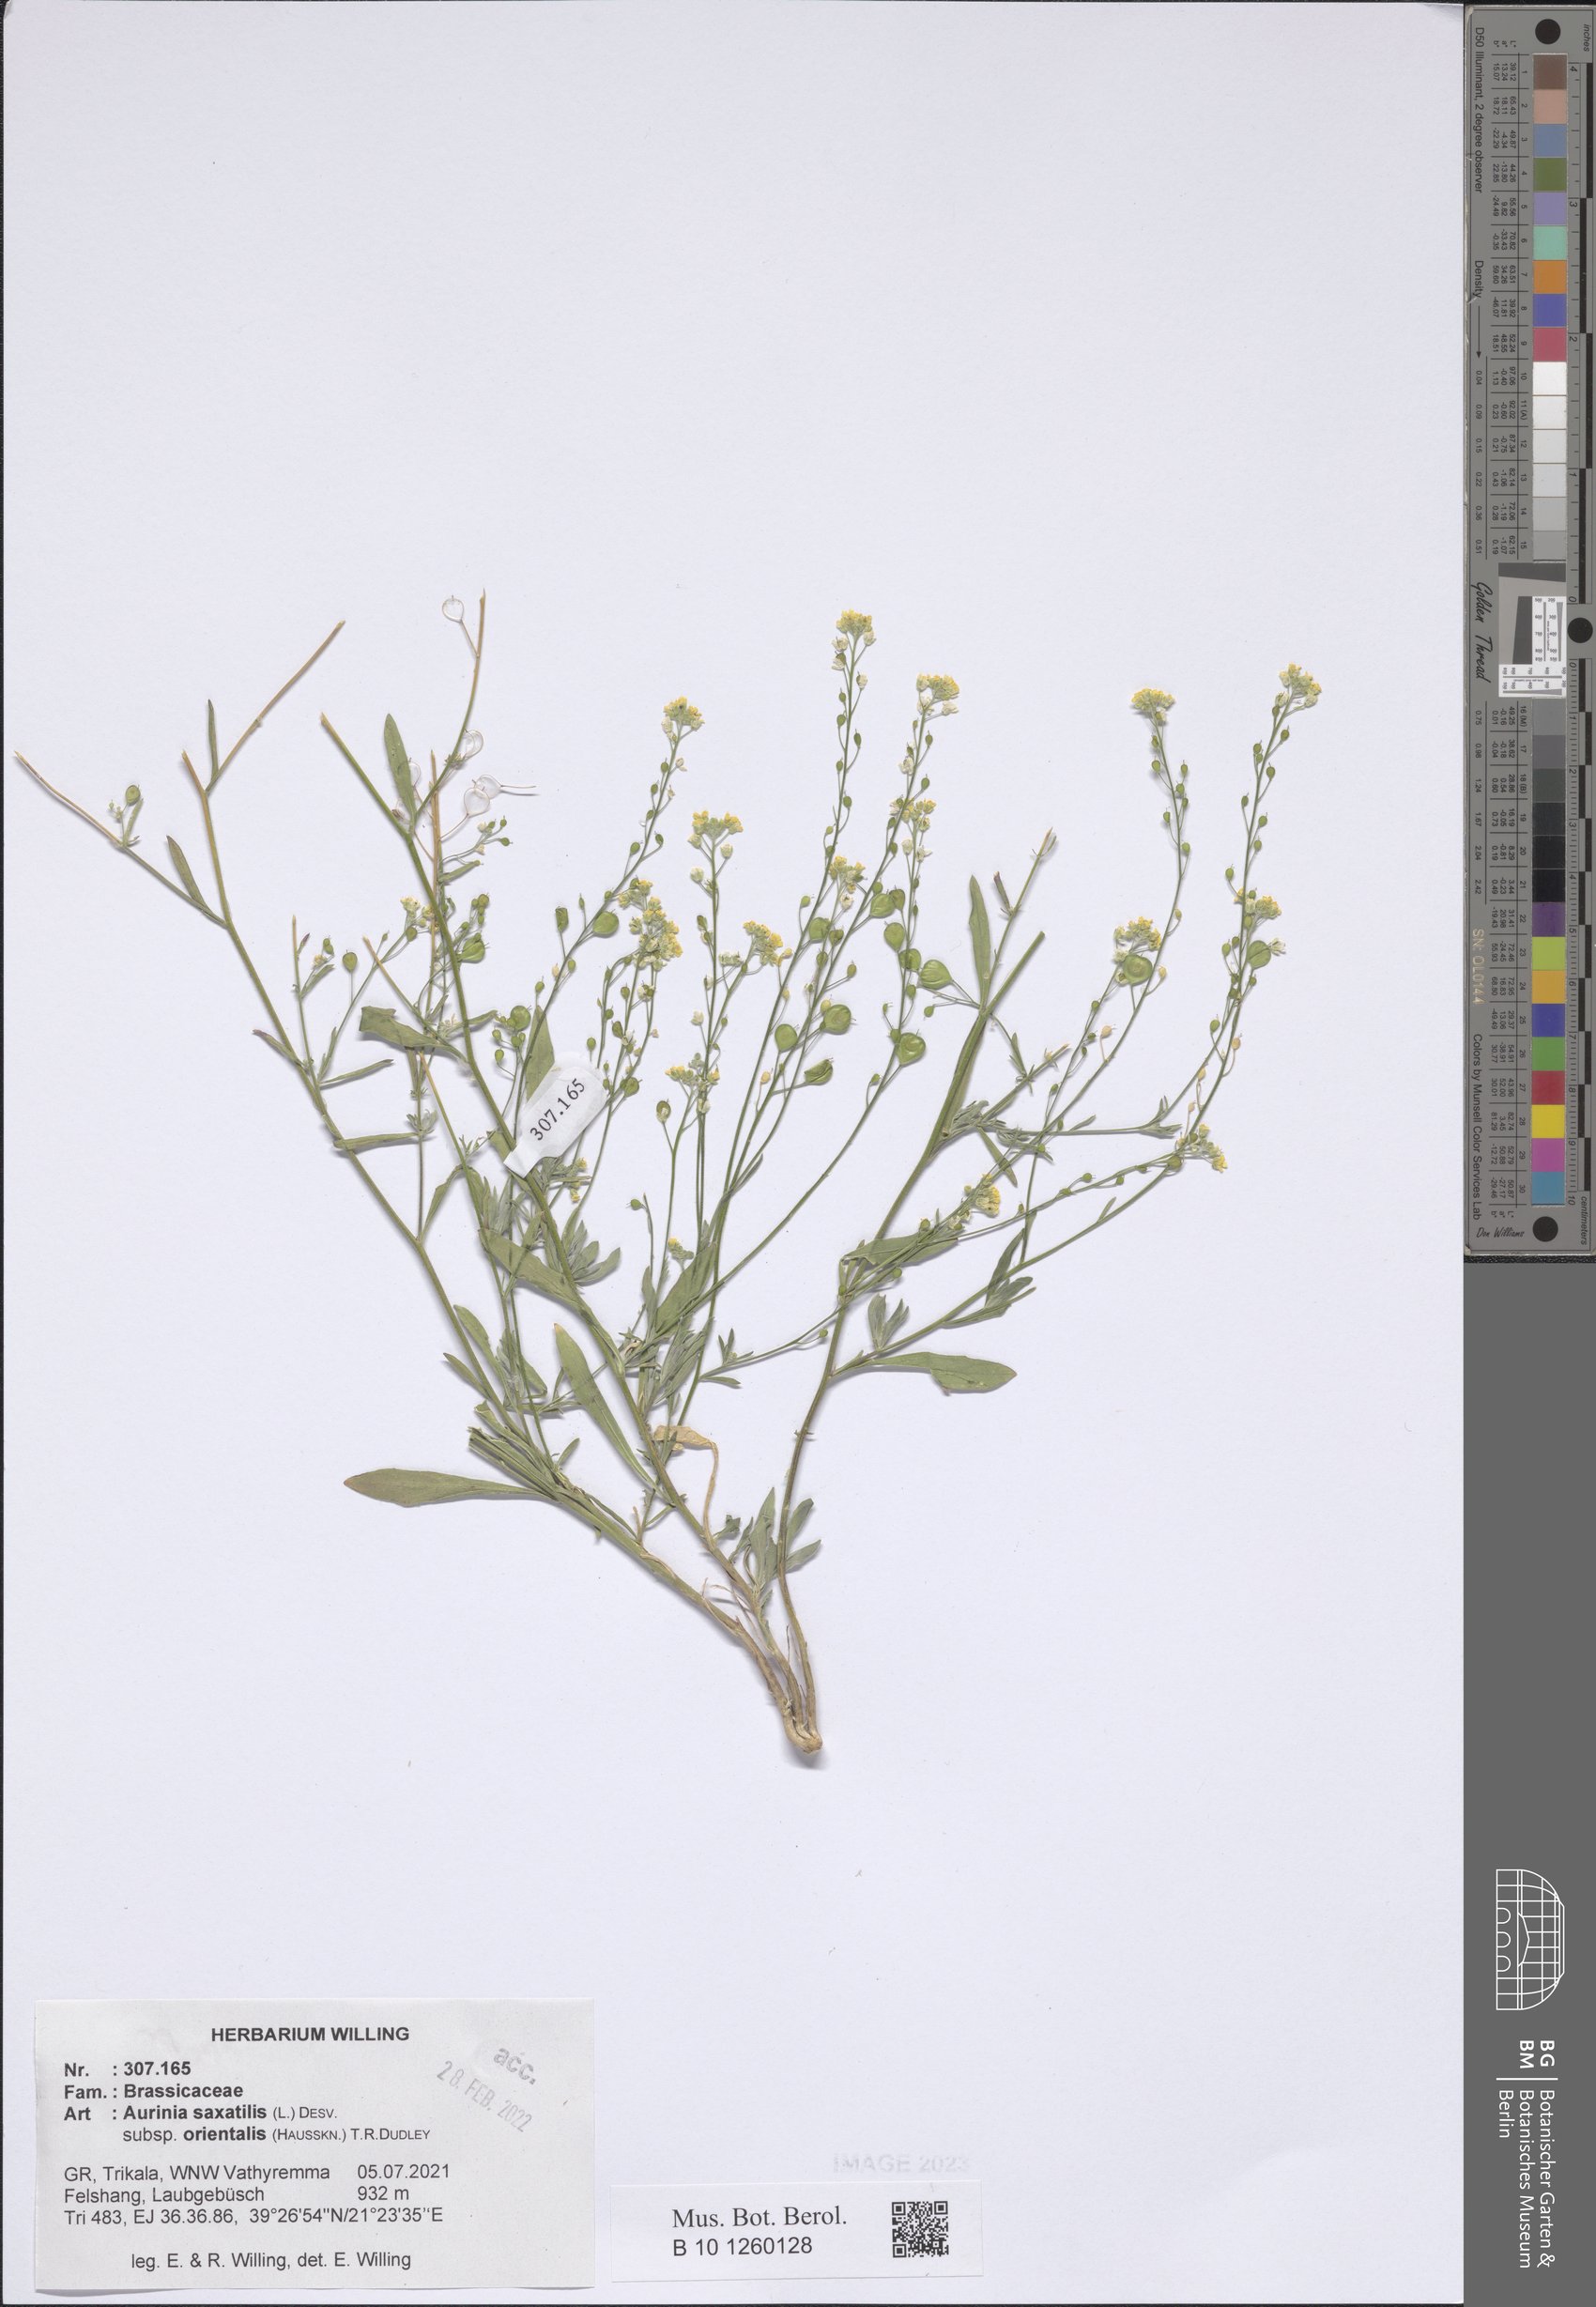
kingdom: Plantae
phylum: Tracheophyta
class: Magnoliopsida
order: Brassicales
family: Brassicaceae
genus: Aurinia
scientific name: Aurinia saxatilis
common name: Golden-tuft alyssum
